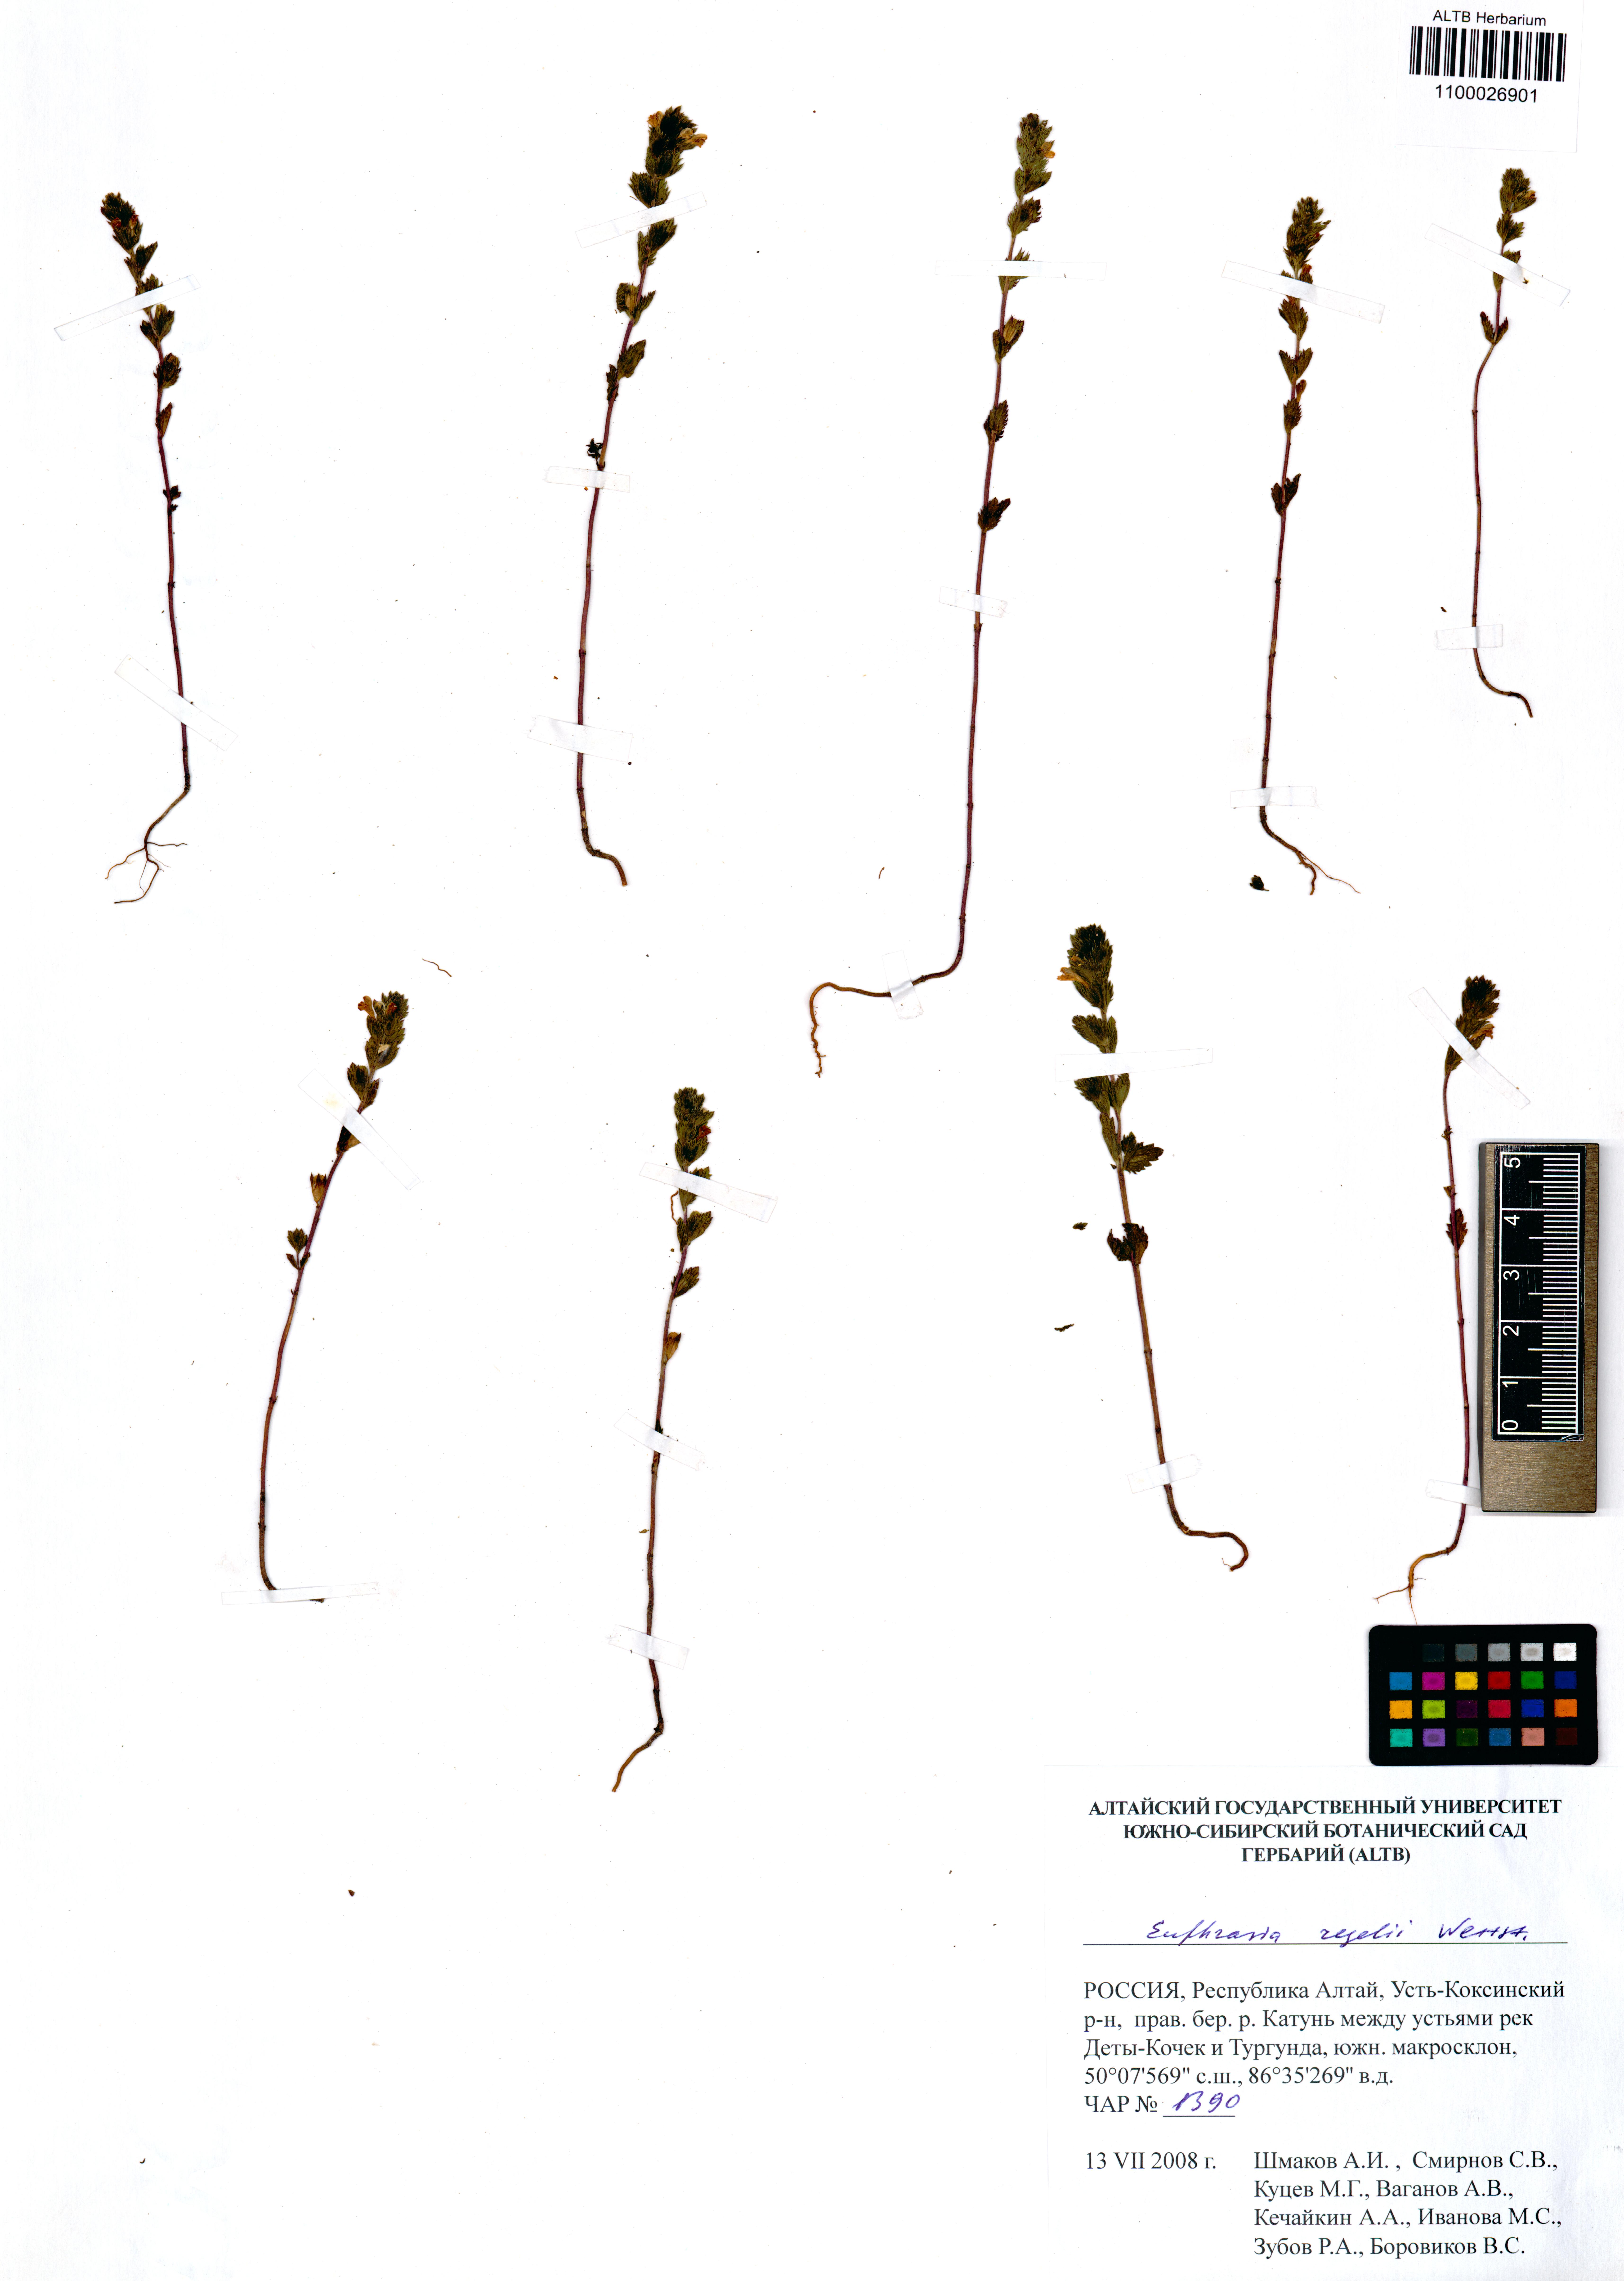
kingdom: Plantae
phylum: Tracheophyta
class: Magnoliopsida
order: Lamiales
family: Orobanchaceae
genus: Euphrasia
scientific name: Euphrasia regelii
